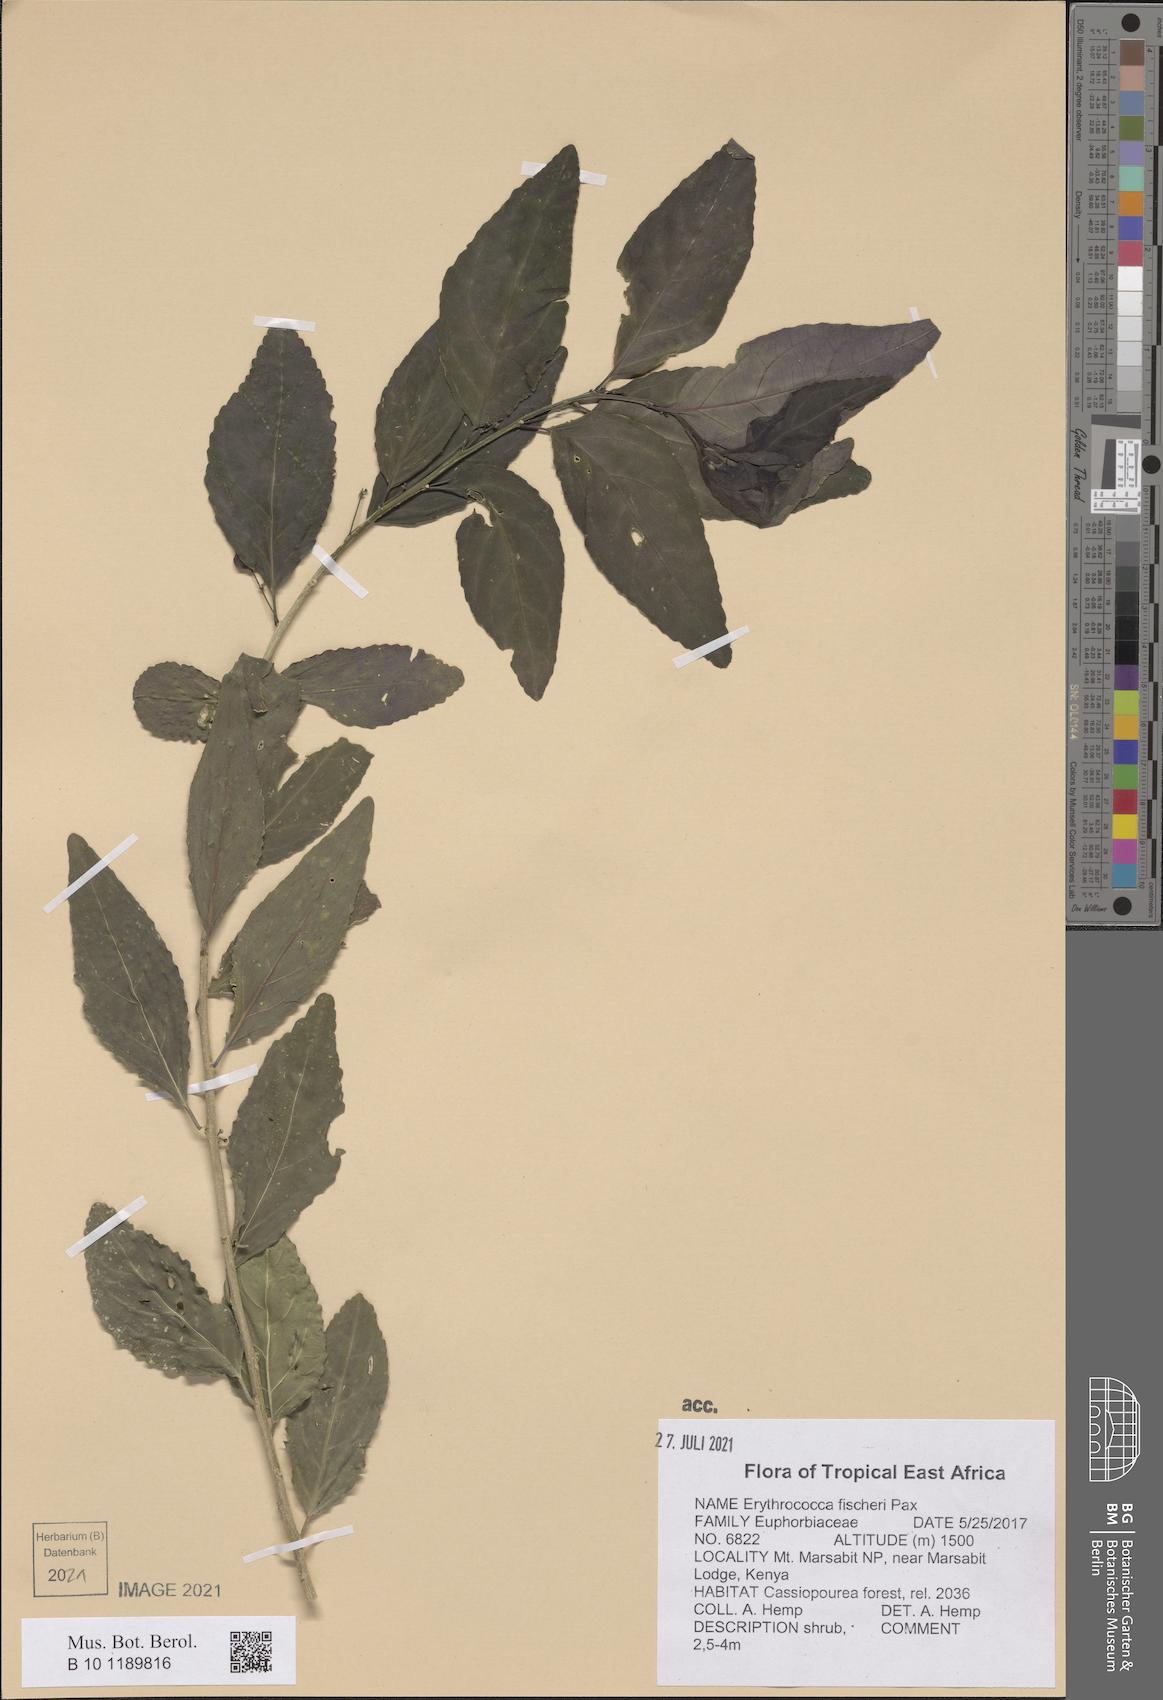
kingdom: Plantae
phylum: Tracheophyta
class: Magnoliopsida
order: Malpighiales
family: Euphorbiaceae
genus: Erythrococca
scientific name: Erythrococca fischeri
